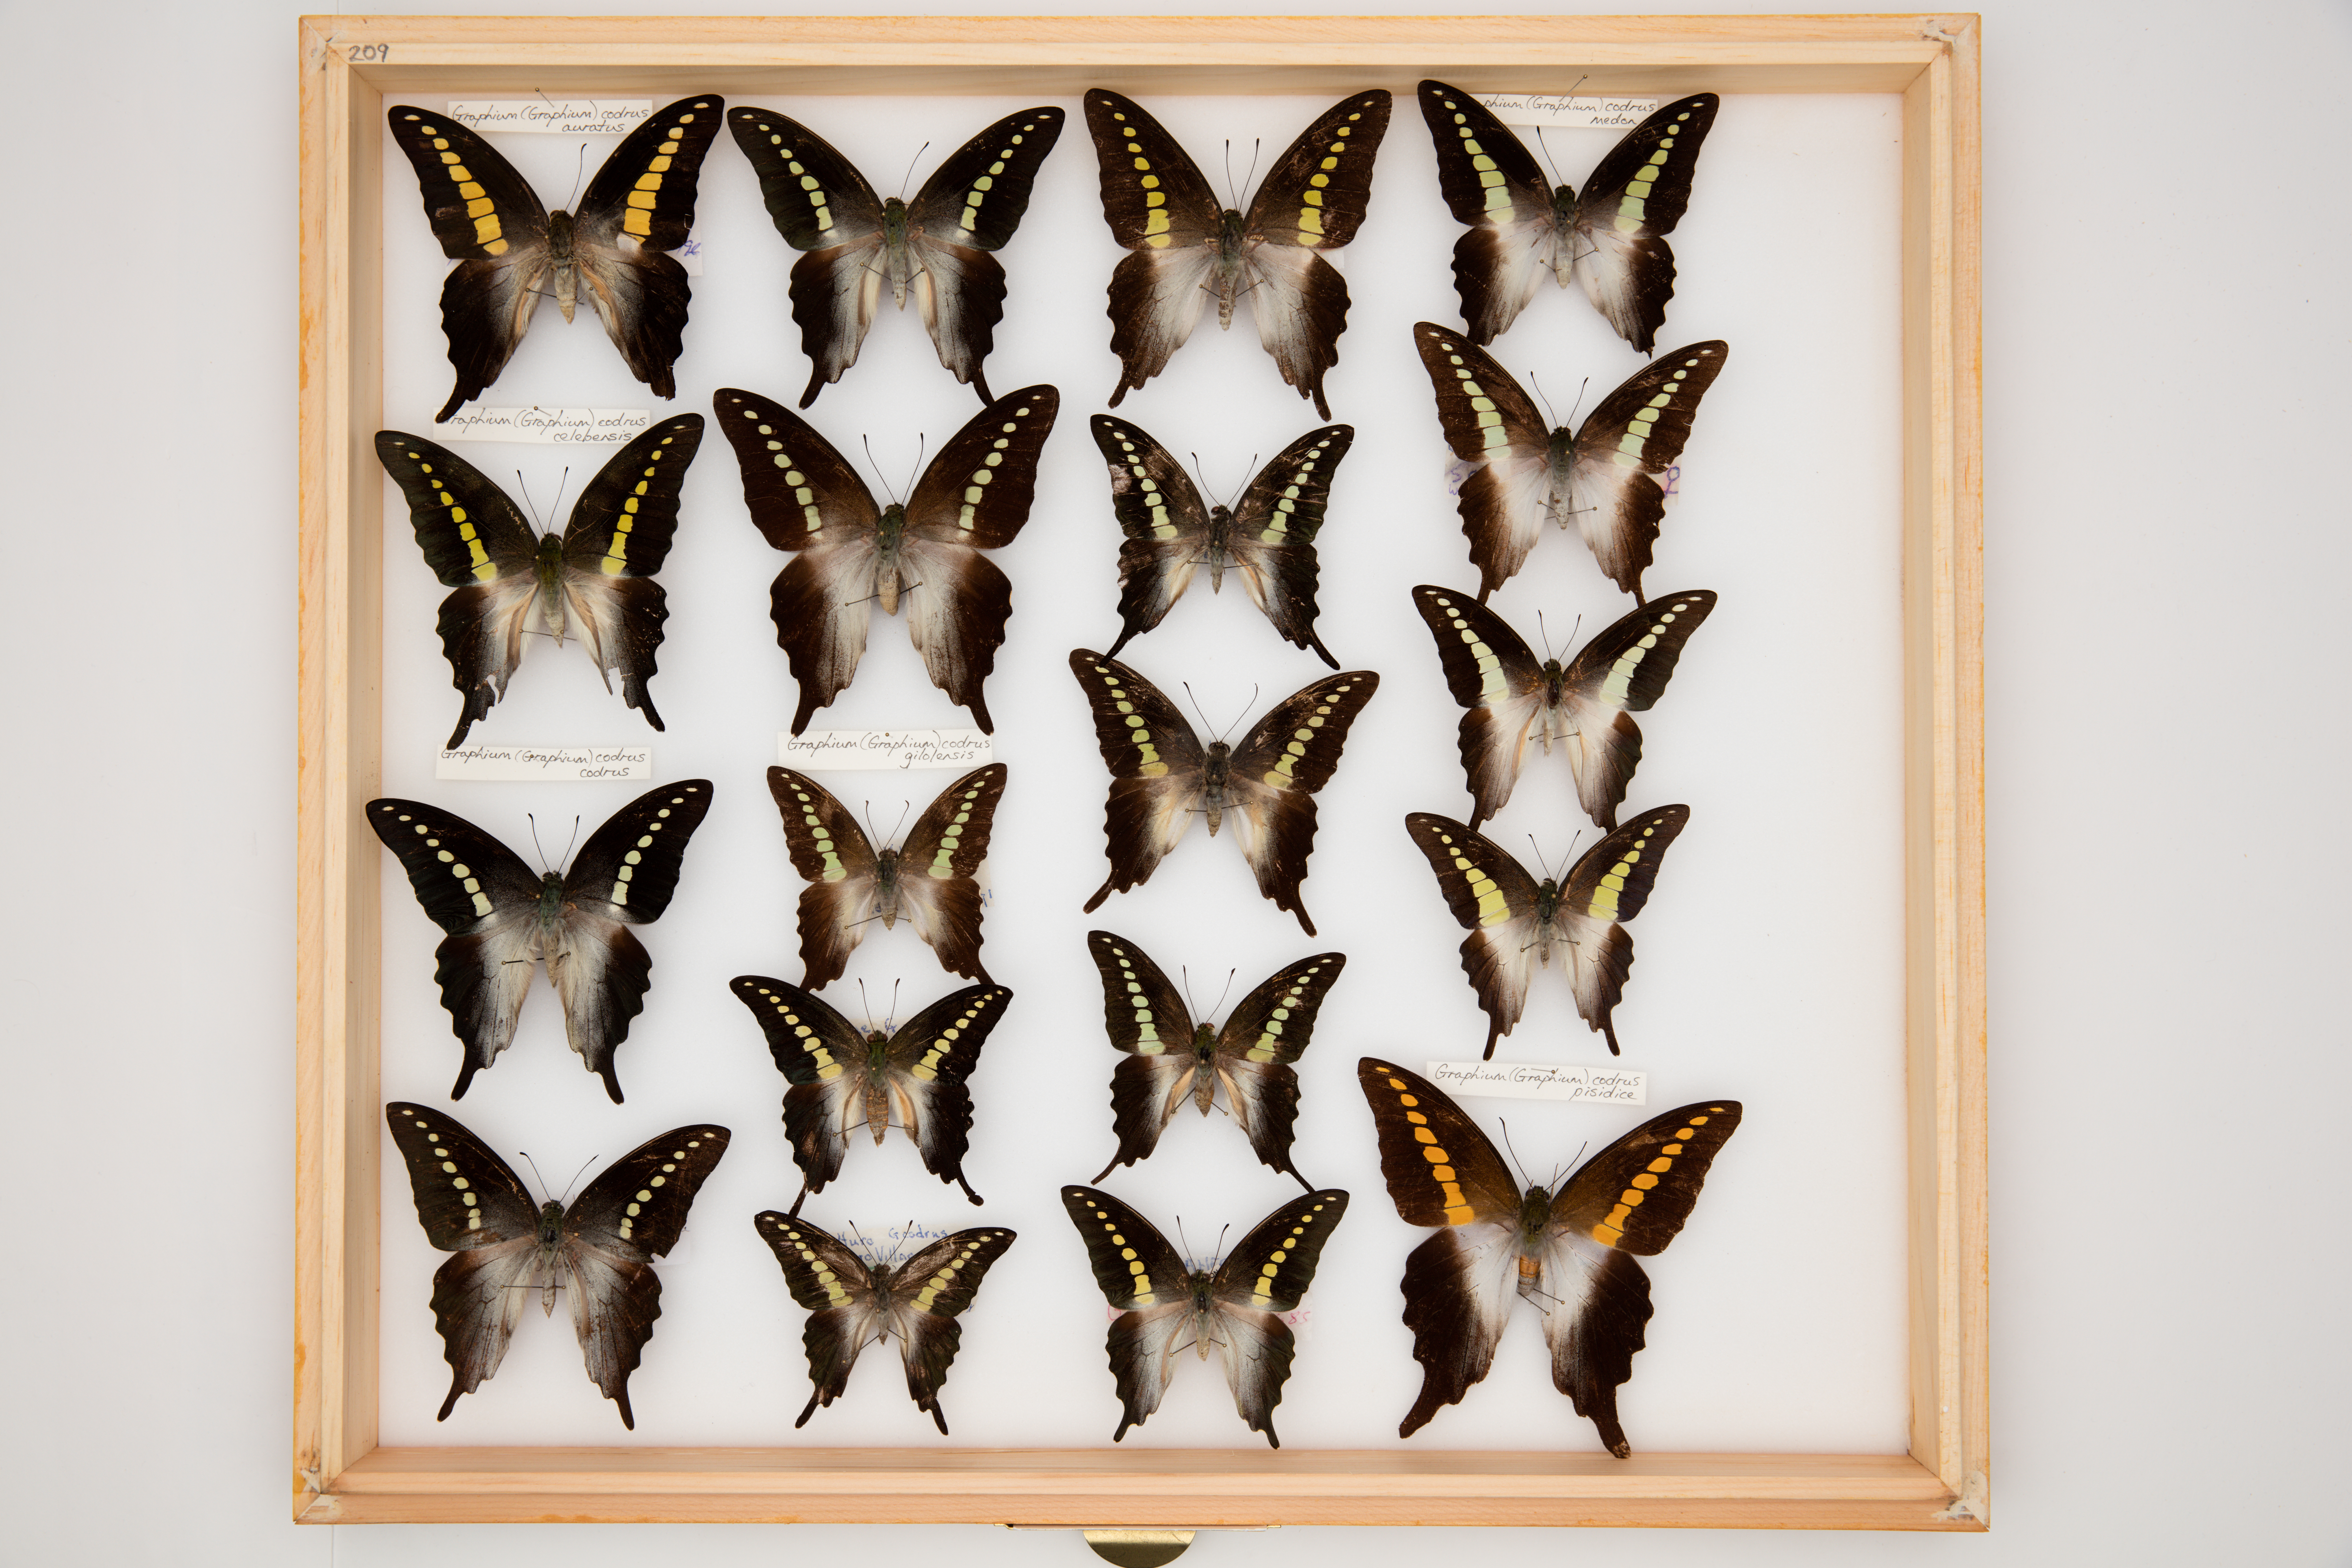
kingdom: Animalia
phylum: Arthropoda
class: Insecta
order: Lepidoptera
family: Papilionidae
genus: Graphium
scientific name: Graphium codrus
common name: Olive triangle
